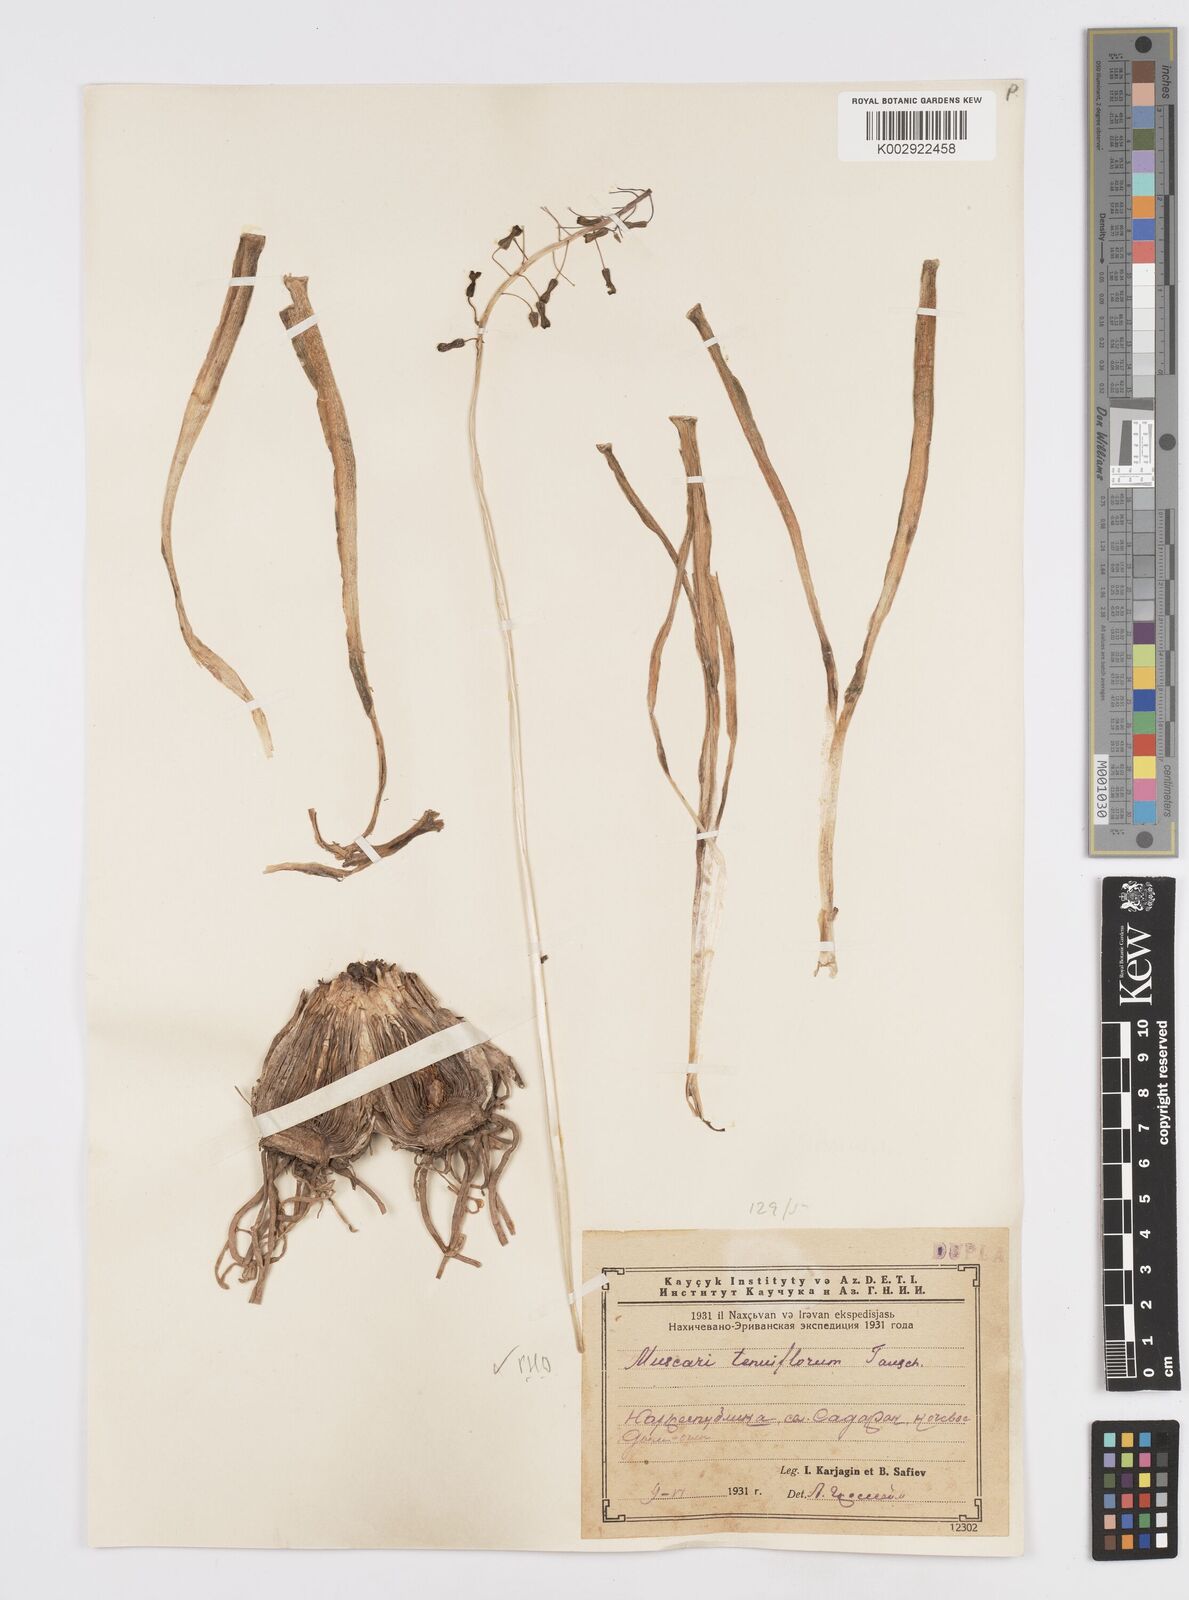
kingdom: Plantae
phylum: Tracheophyta
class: Liliopsida
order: Asparagales
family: Asparagaceae
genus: Muscari
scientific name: Muscari tenuiflorum
